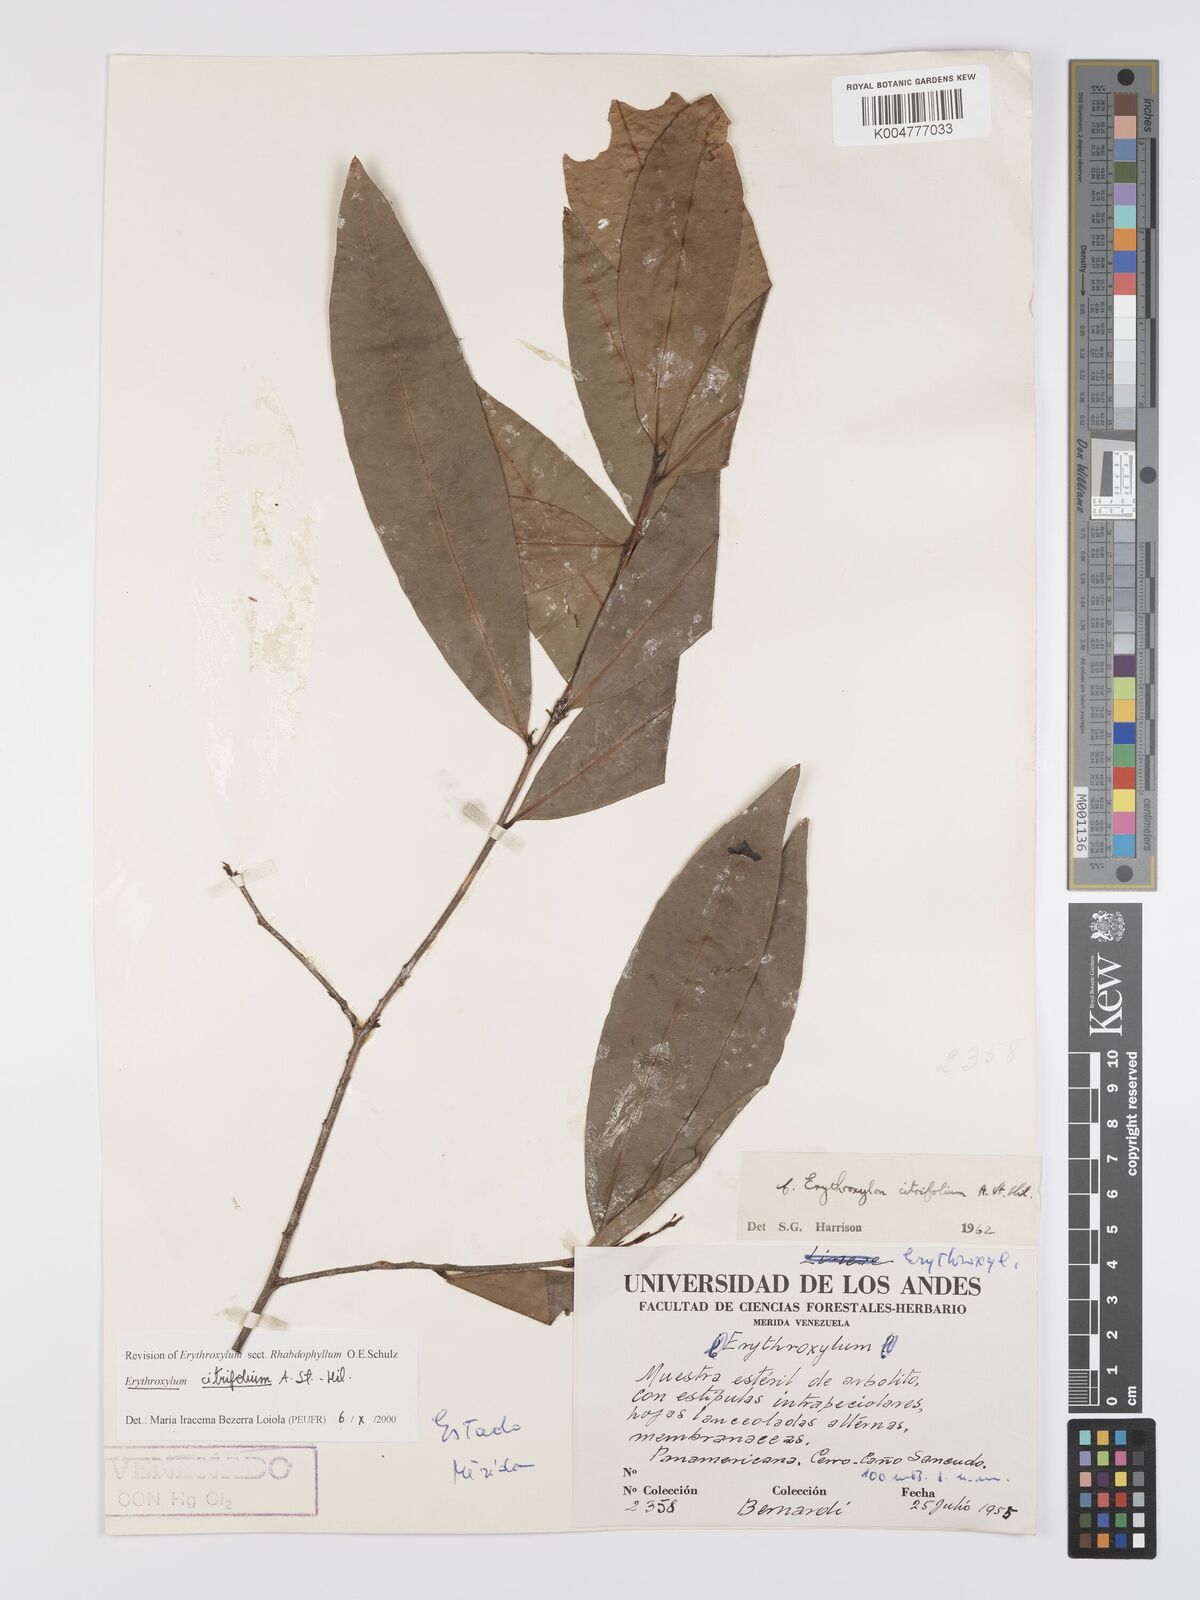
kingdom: Plantae
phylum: Tracheophyta
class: Magnoliopsida
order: Malpighiales
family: Erythroxylaceae
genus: Erythroxylum
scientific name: Erythroxylum citrifolium
